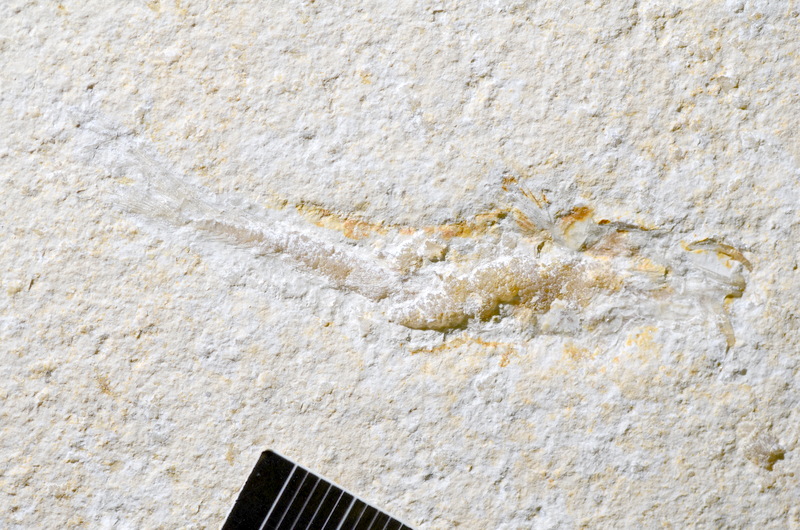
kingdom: Animalia
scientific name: Animalia
